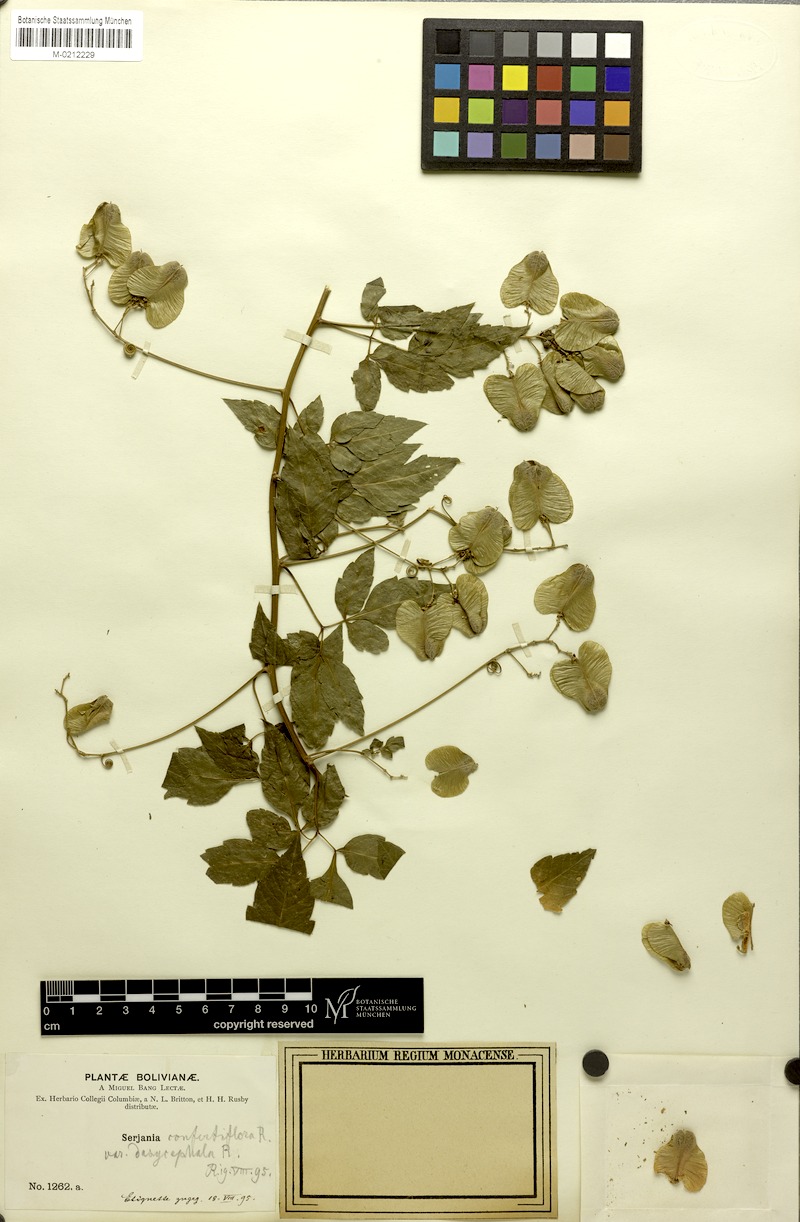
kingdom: Plantae
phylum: Tracheophyta
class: Magnoliopsida
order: Sapindales
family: Sapindaceae
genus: Serjania
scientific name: Serjania confertiflora
